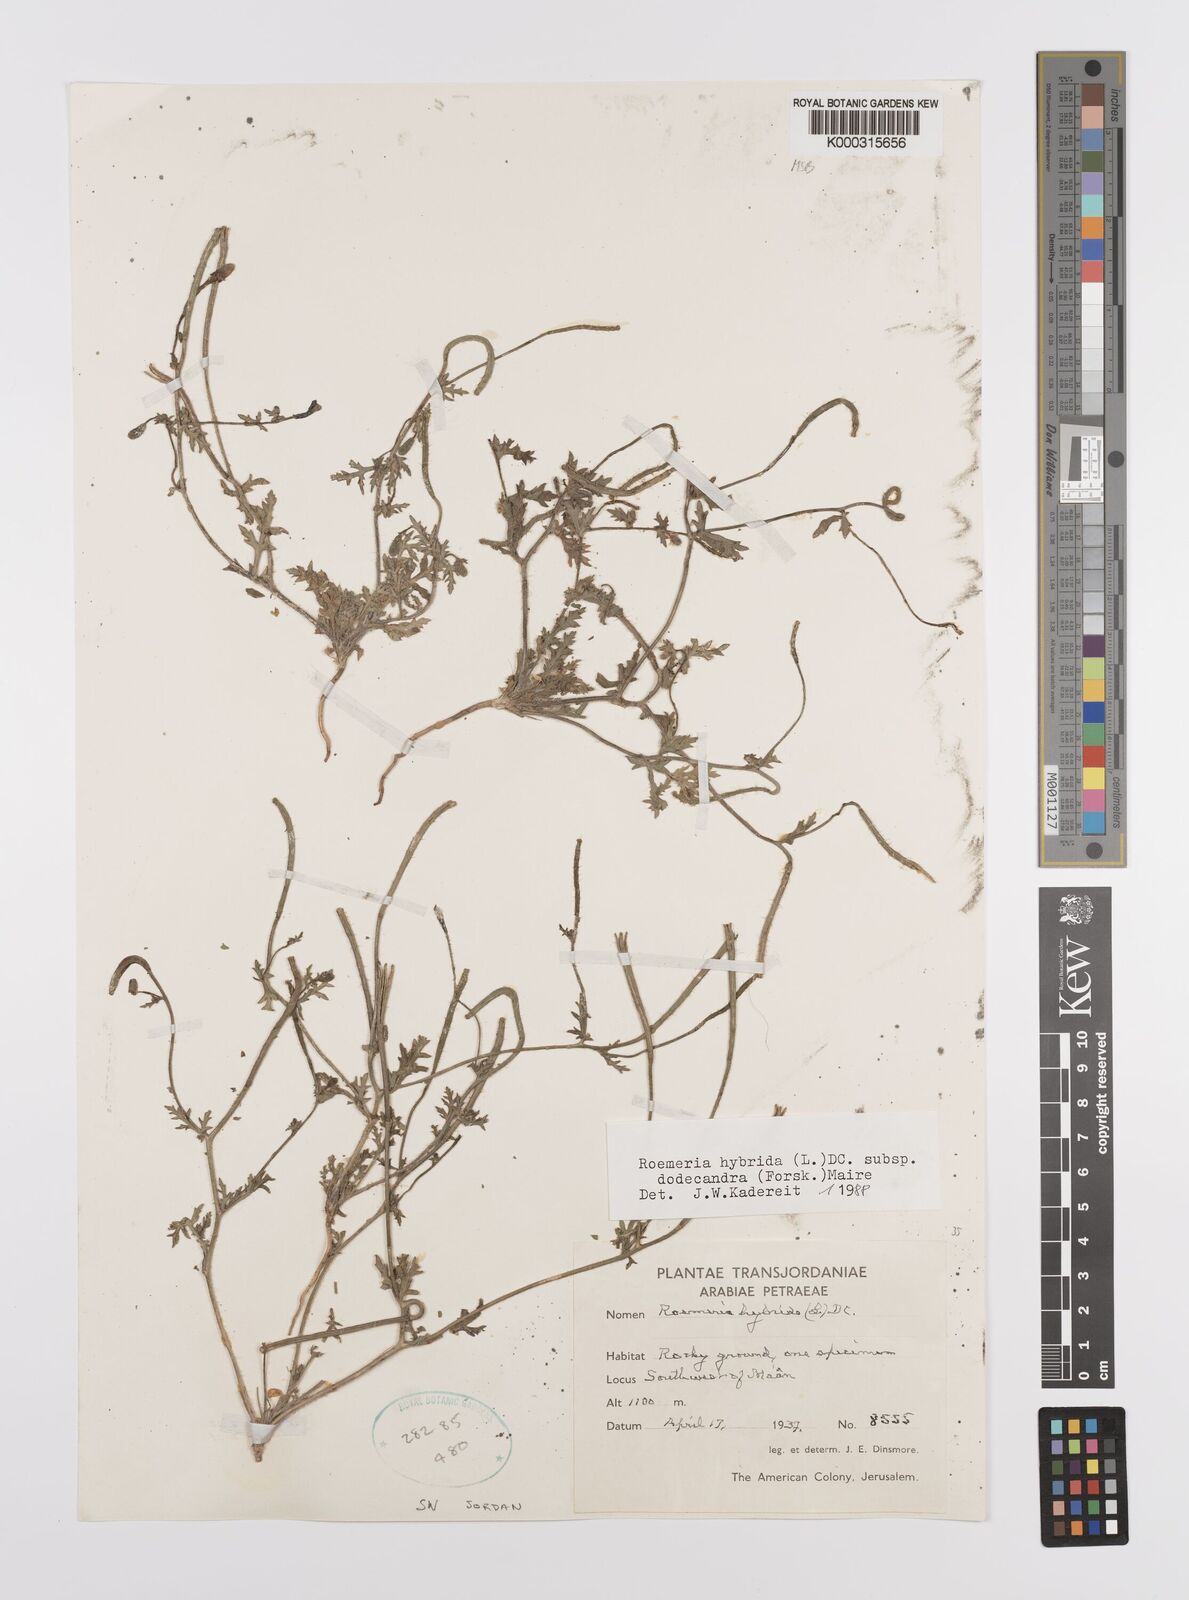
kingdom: Plantae
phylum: Tracheophyta
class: Magnoliopsida
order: Ranunculales
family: Papaveraceae
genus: Roemeria
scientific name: Roemeria hybrida
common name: Violet horned-poppy
